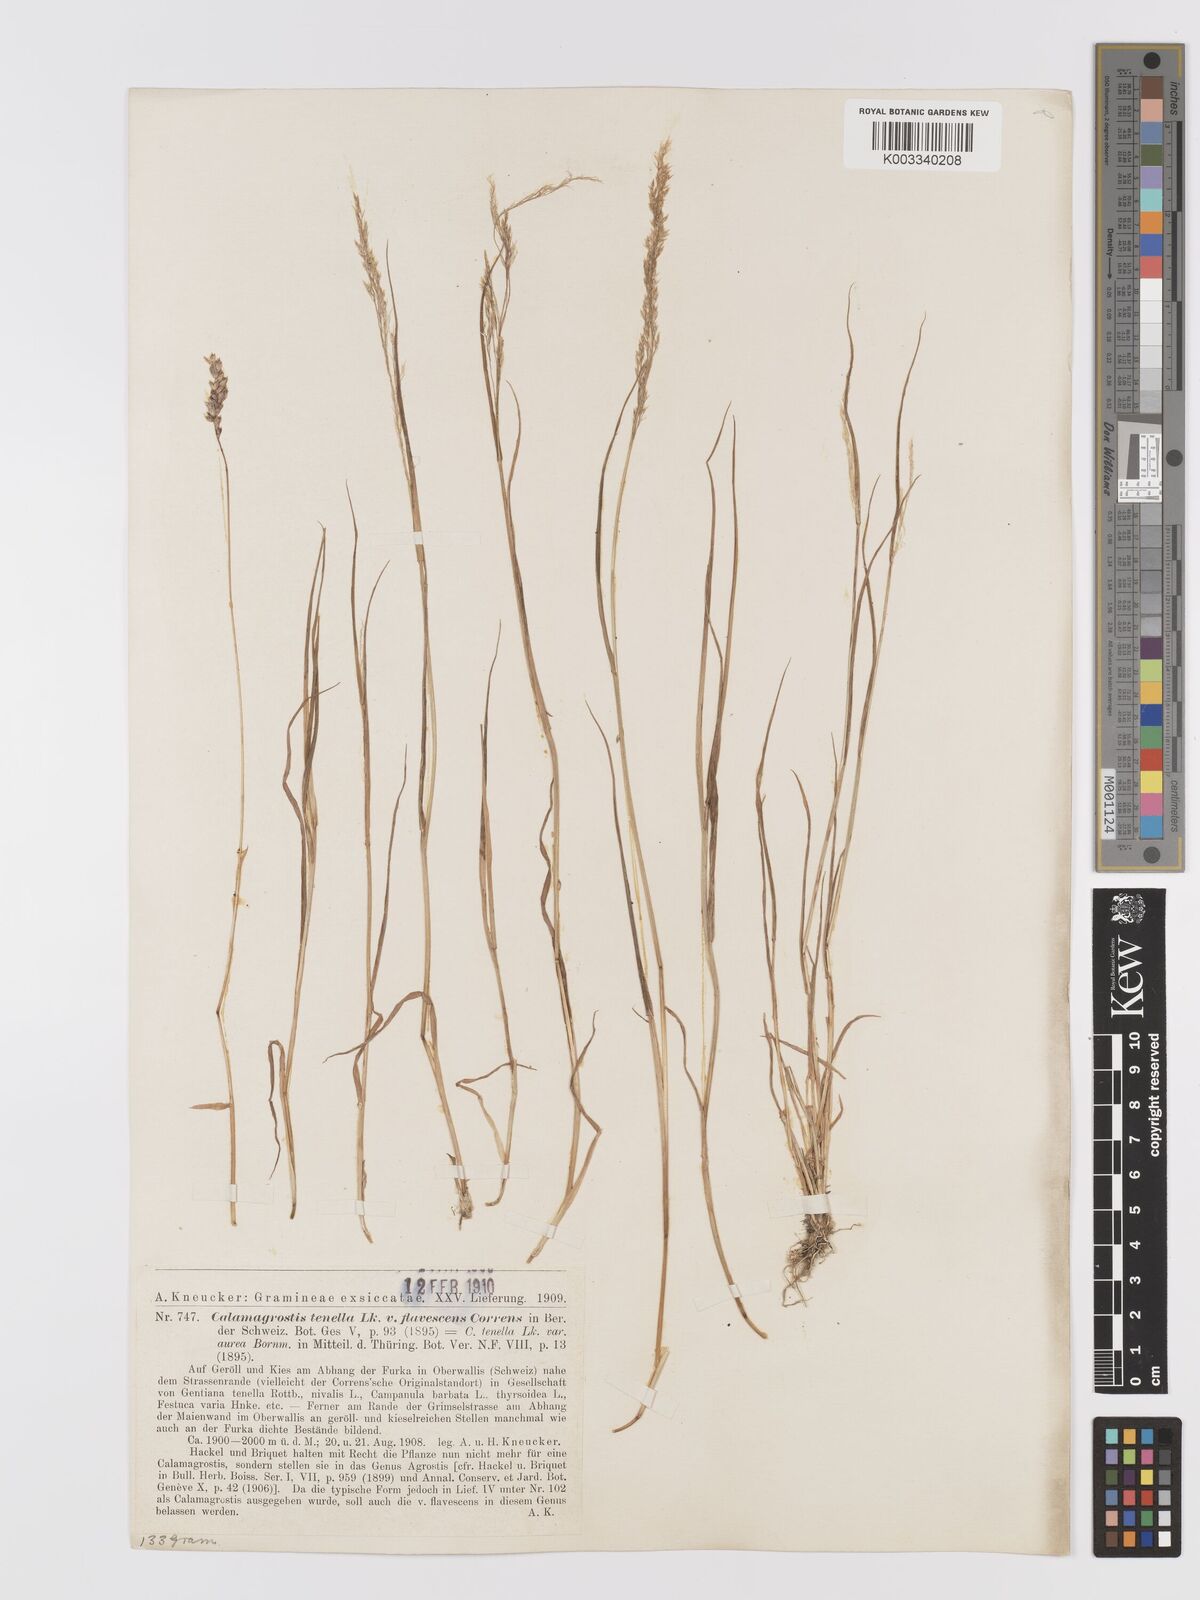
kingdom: Plantae
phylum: Tracheophyta
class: Liliopsida
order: Poales
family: Poaceae
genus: Agrostis
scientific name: Agrostis schraderiana
